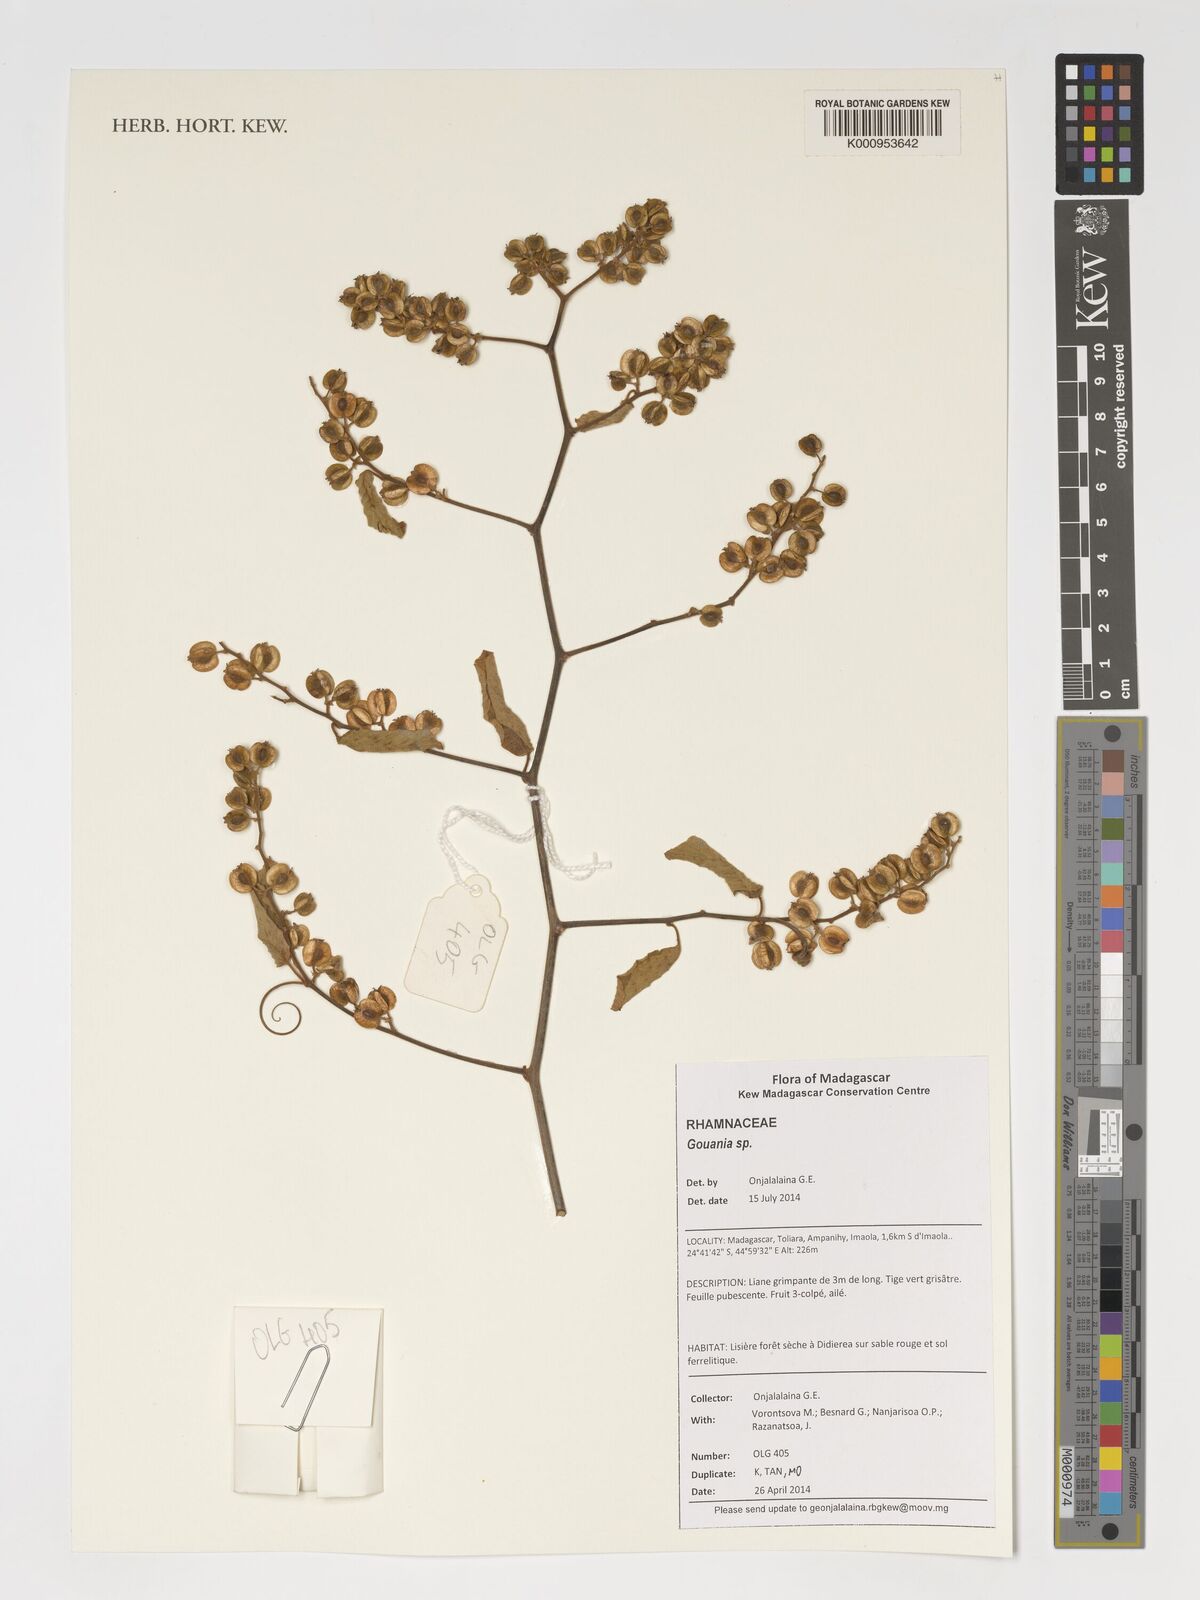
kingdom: Plantae
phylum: Tracheophyta
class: Magnoliopsida
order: Rosales
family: Rhamnaceae
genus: Gouania
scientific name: Gouania
